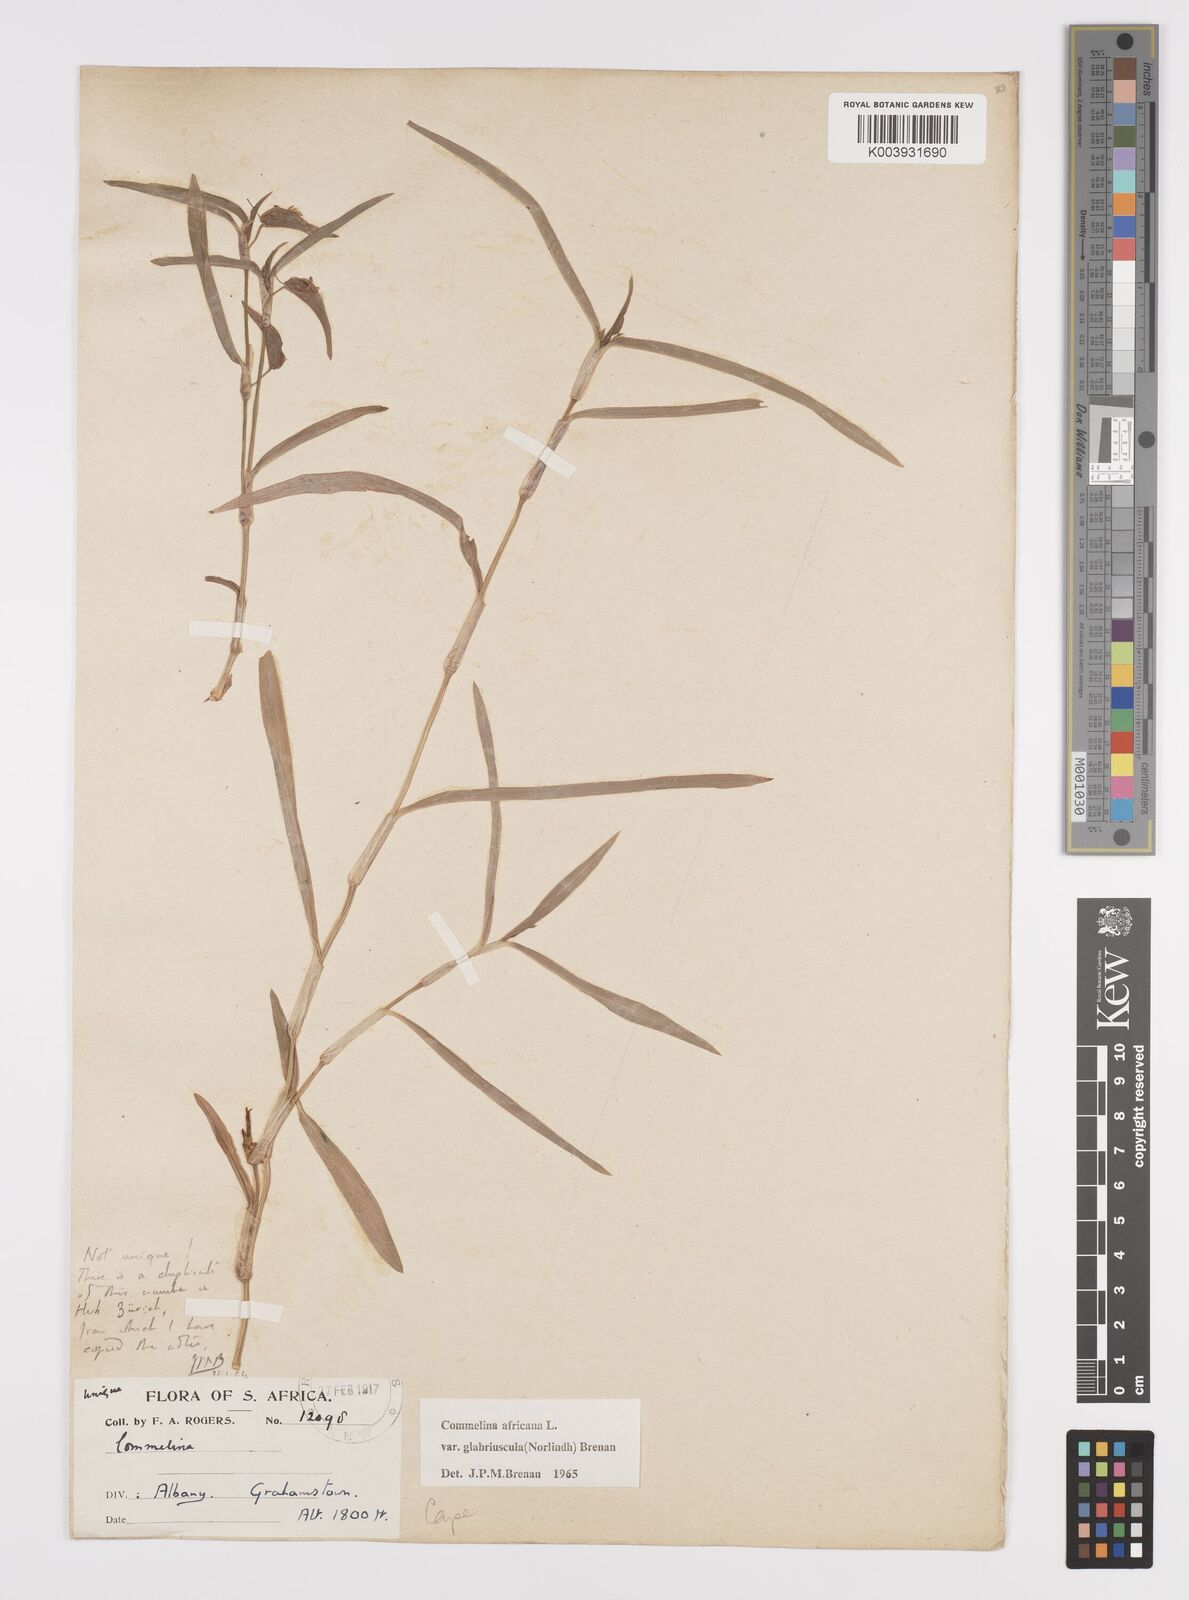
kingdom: Plantae
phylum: Tracheophyta
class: Liliopsida
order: Commelinales
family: Commelinaceae
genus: Commelina
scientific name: Commelina africana
